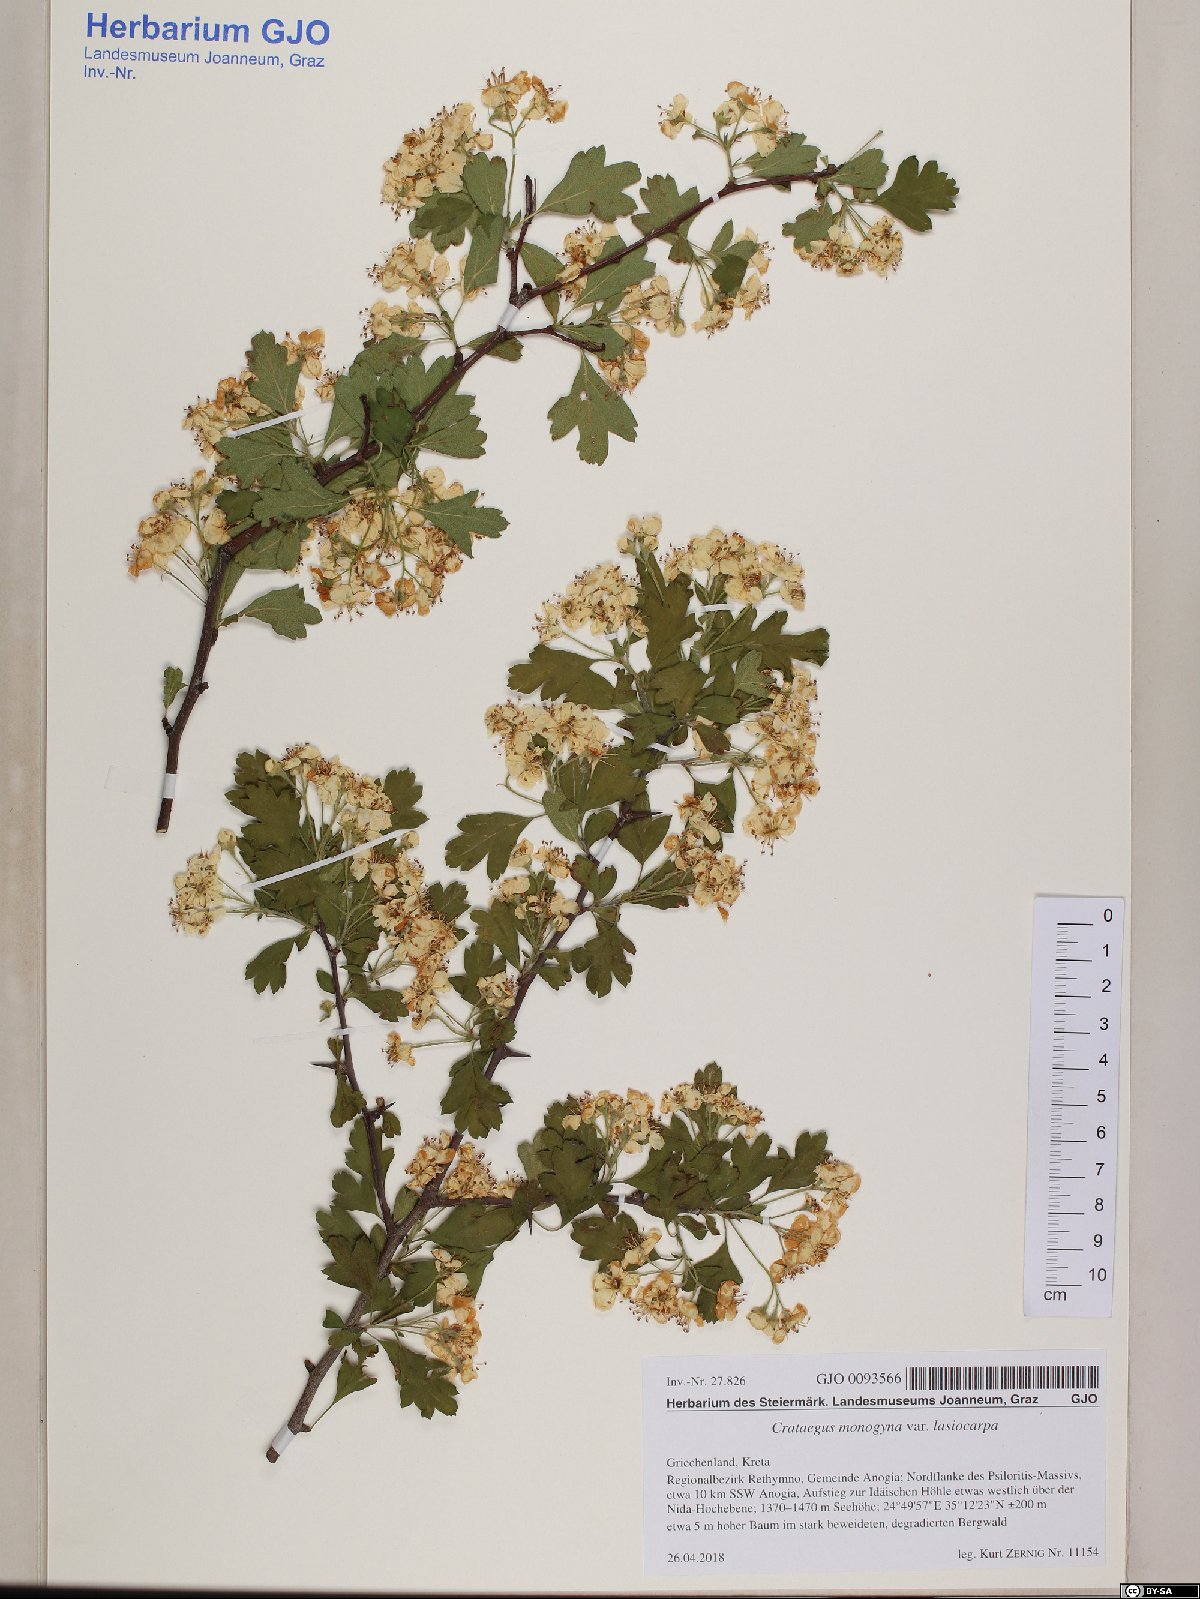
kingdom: Plantae
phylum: Tracheophyta
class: Magnoliopsida
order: Rosales
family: Rosaceae
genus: Crataegus
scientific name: Crataegus laciniata
